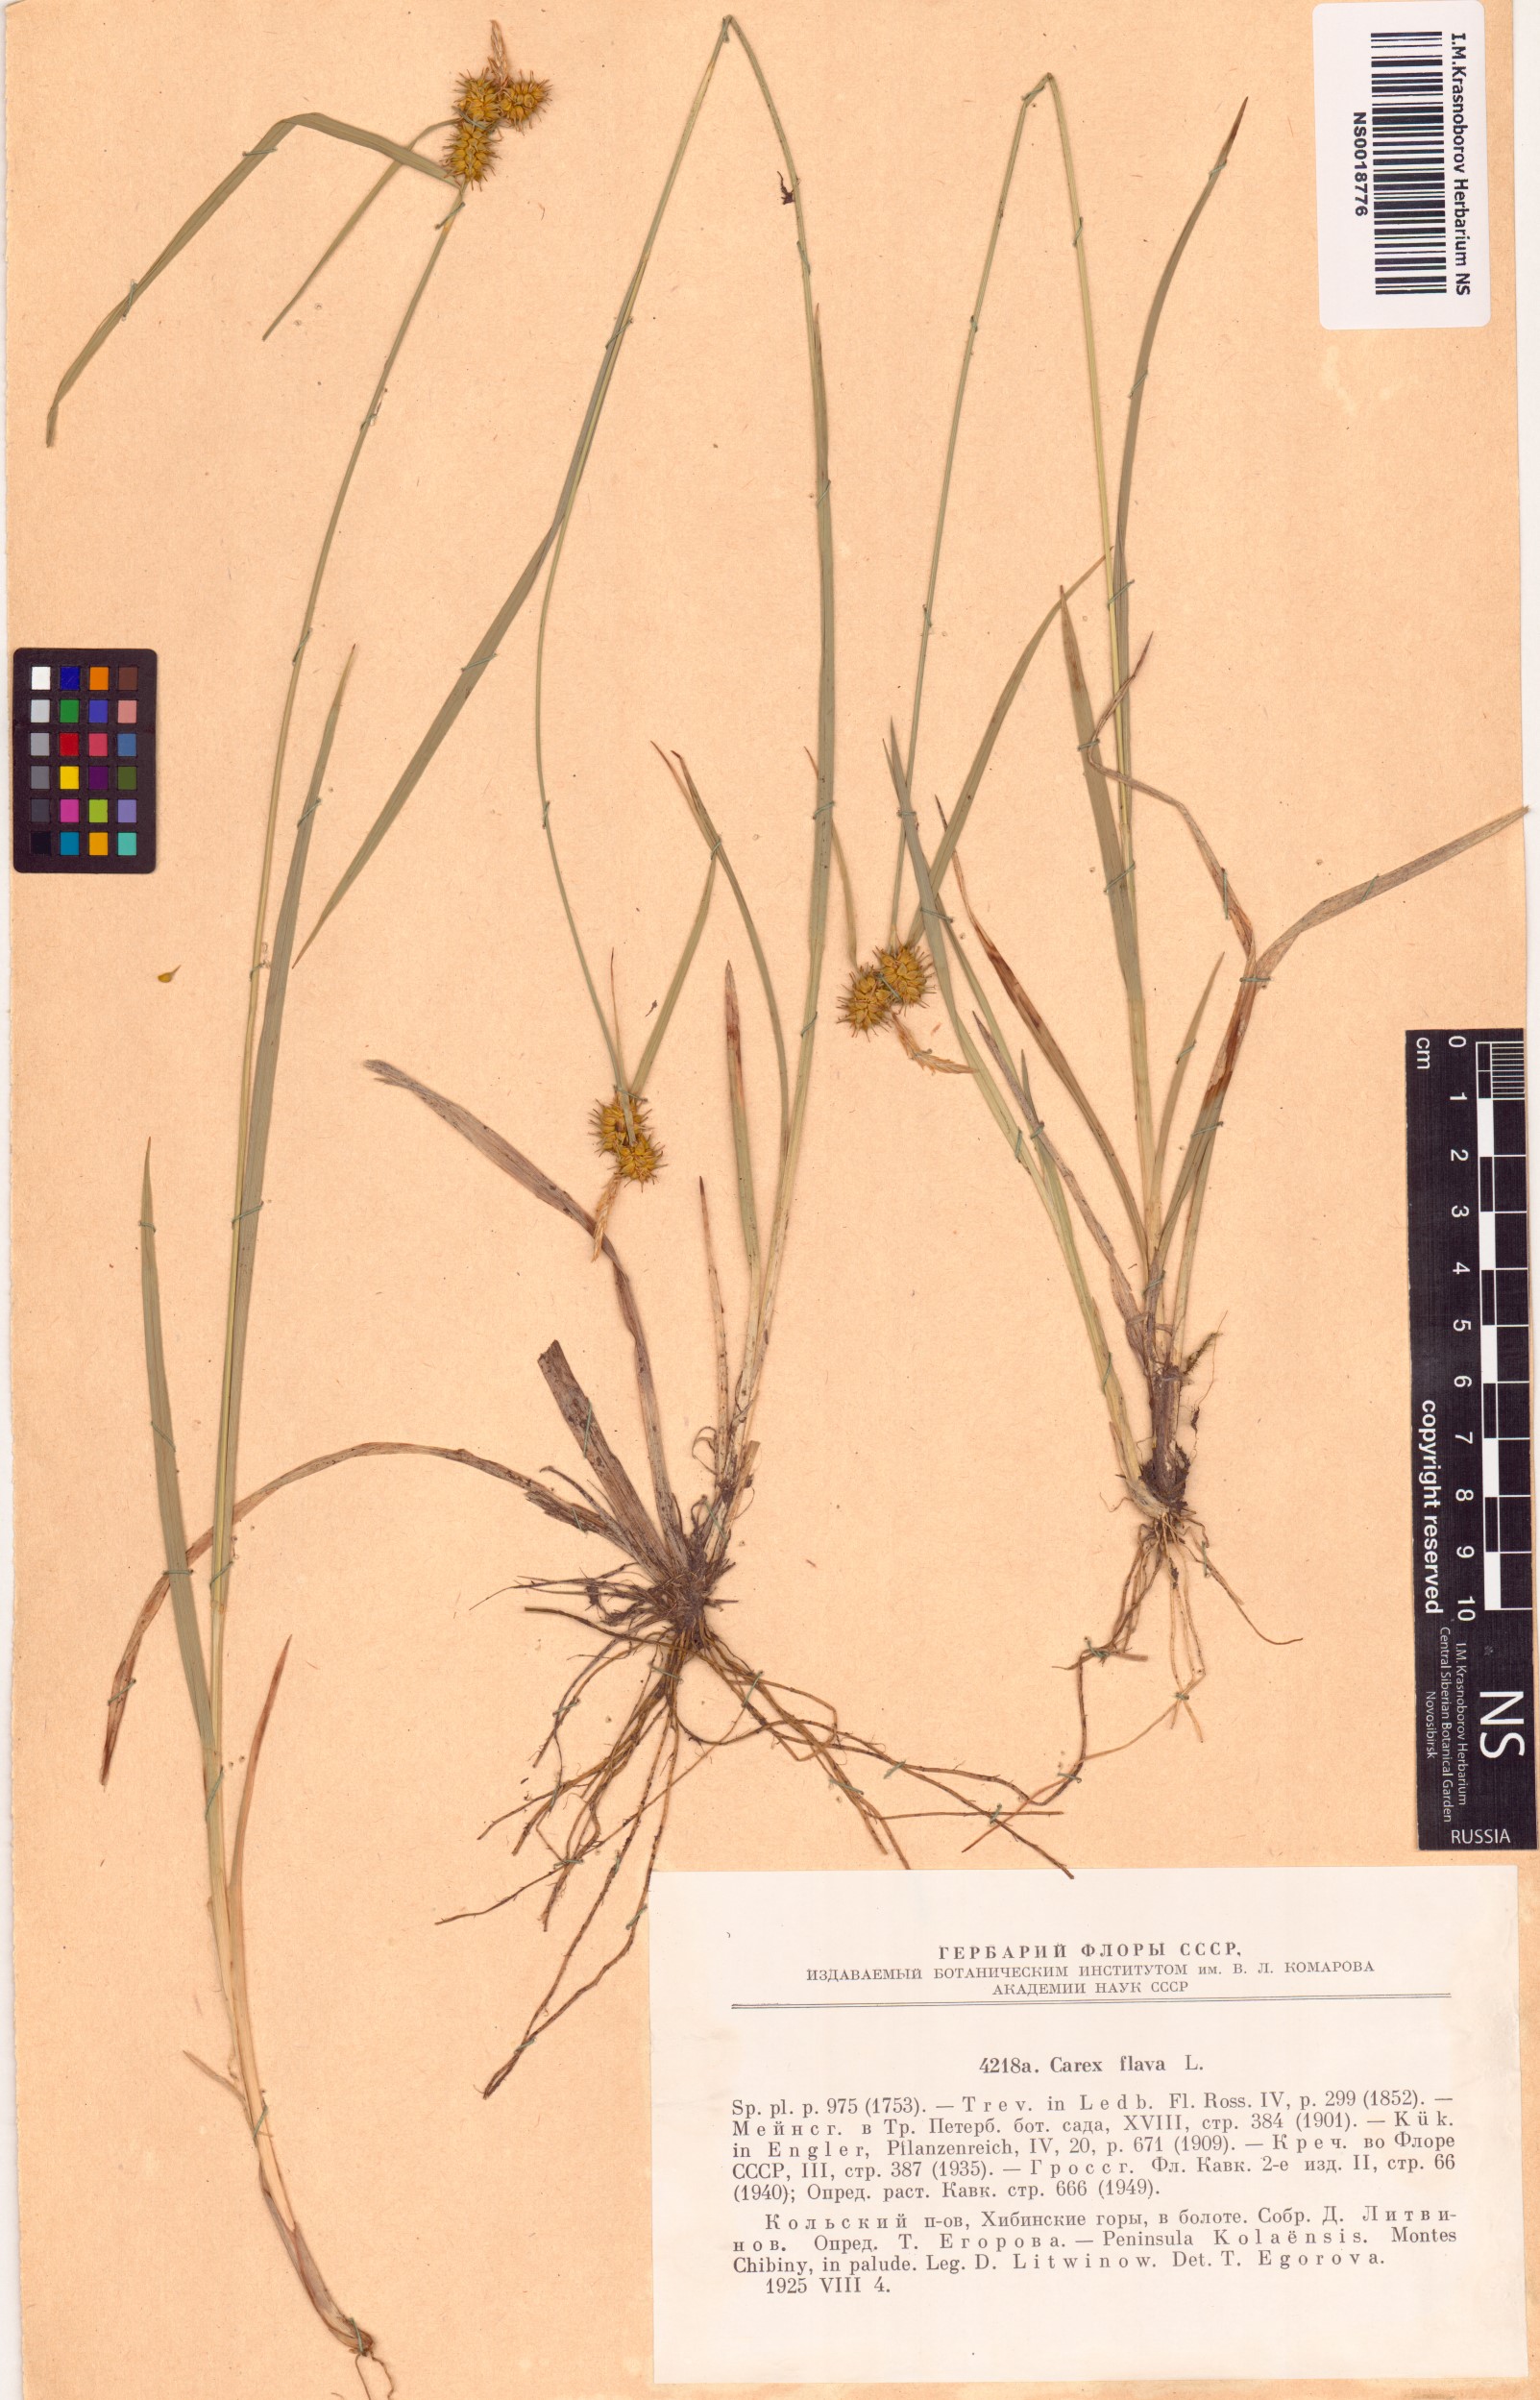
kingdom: Plantae
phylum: Tracheophyta
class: Liliopsida
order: Poales
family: Cyperaceae
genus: Carex
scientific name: Carex flava
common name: Large yellow-sedge
